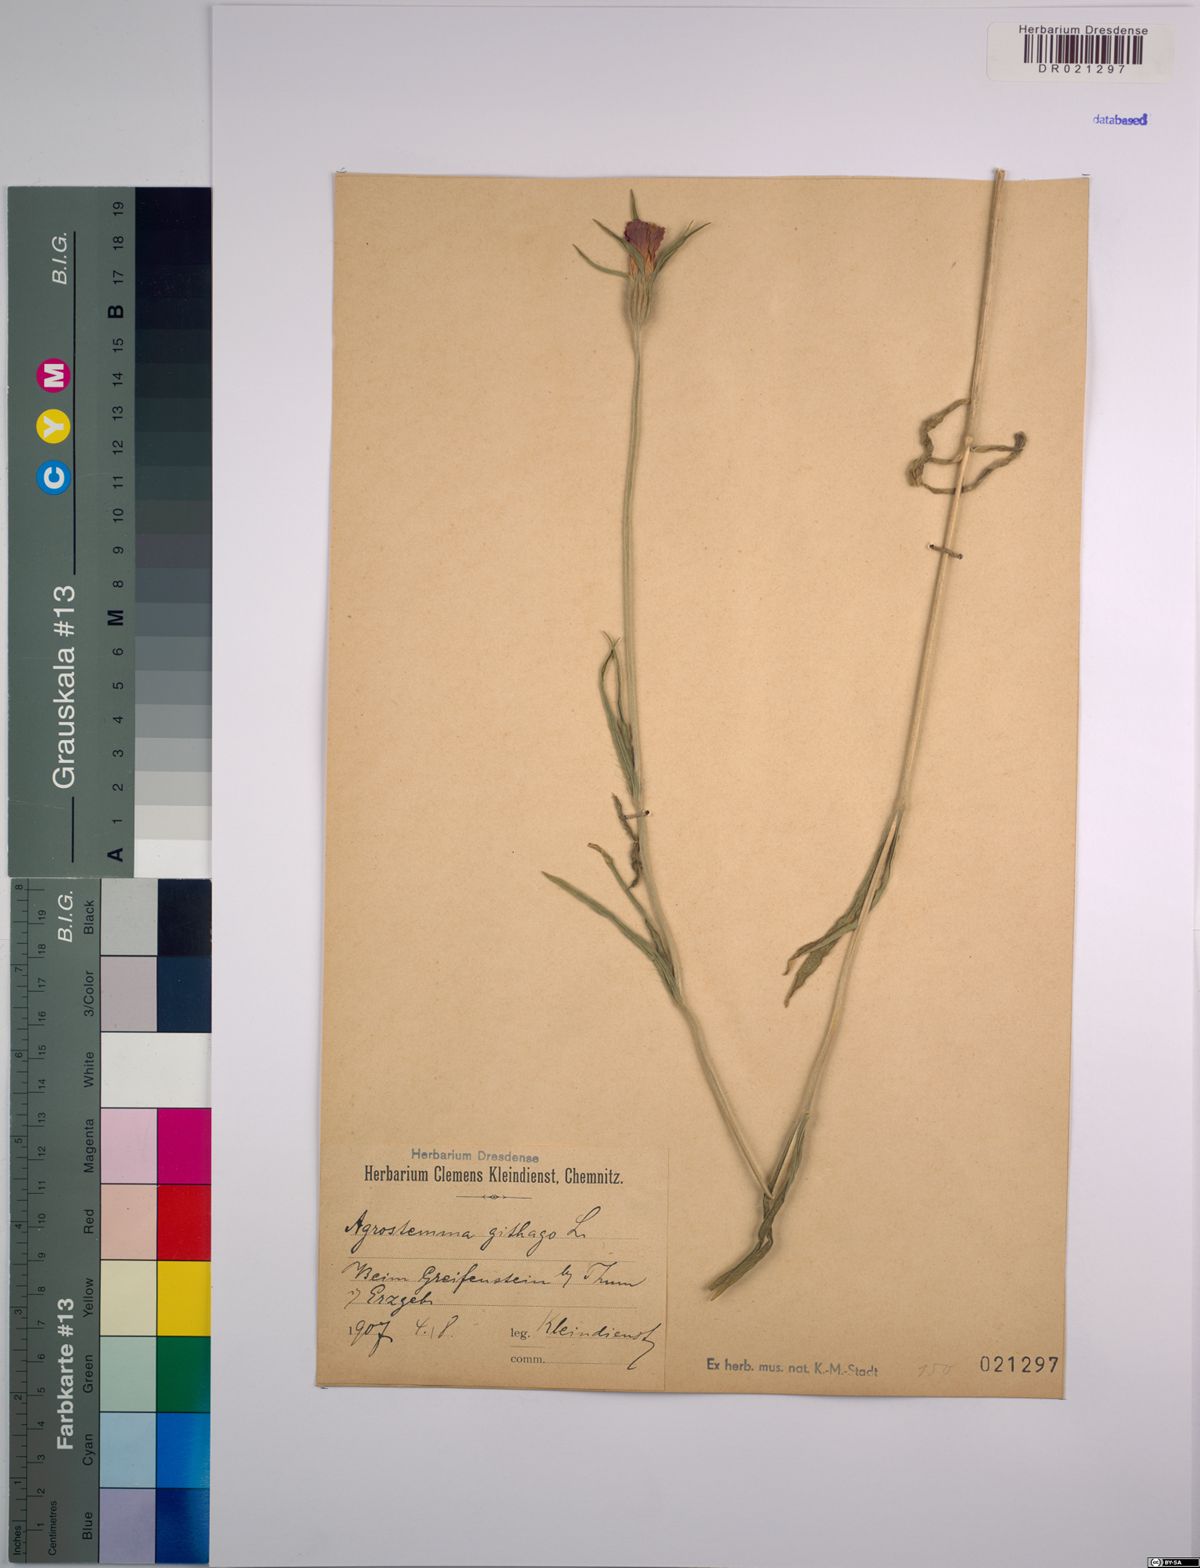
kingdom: Plantae
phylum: Tracheophyta
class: Magnoliopsida
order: Caryophyllales
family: Caryophyllaceae
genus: Agrostemma
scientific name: Agrostemma githago
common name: Common corncockle
